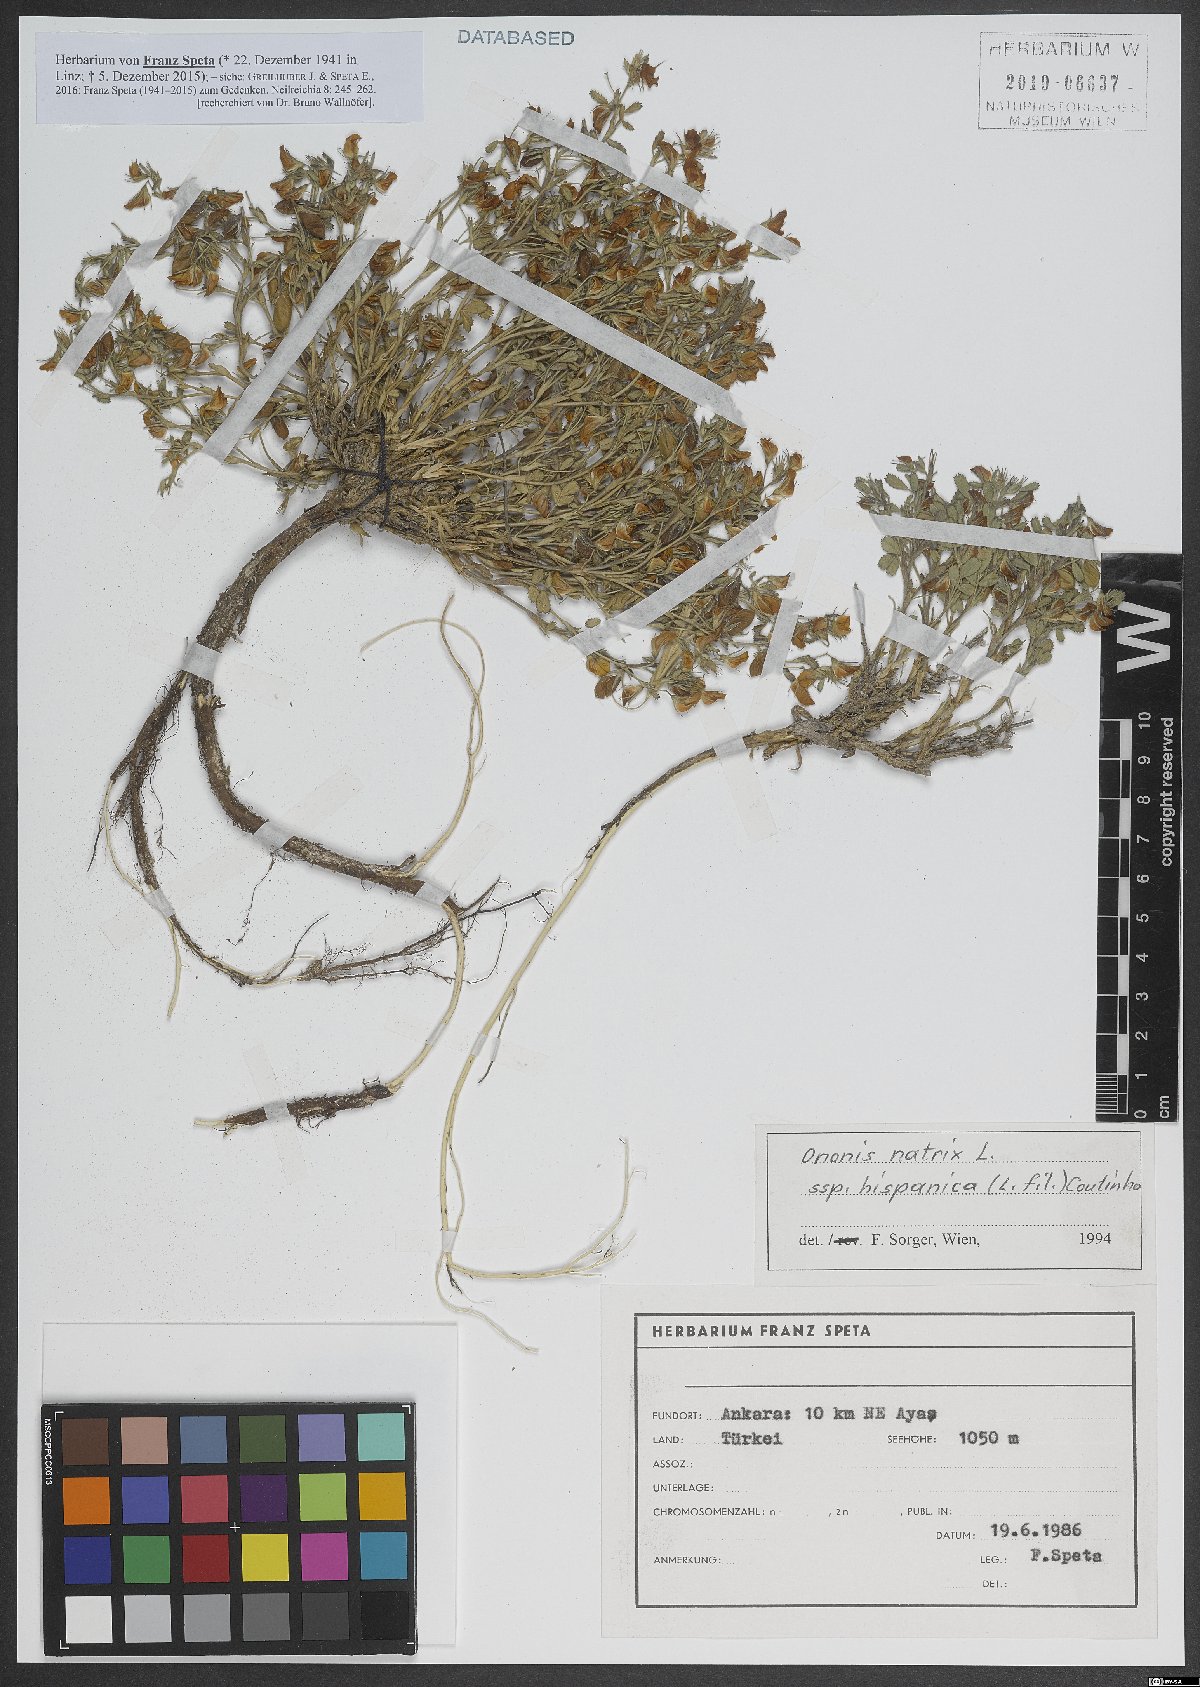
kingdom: Plantae
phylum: Tracheophyta
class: Magnoliopsida
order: Fabales
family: Fabaceae
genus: Ononis
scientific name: Ononis natrix
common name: Yellow restharrow
